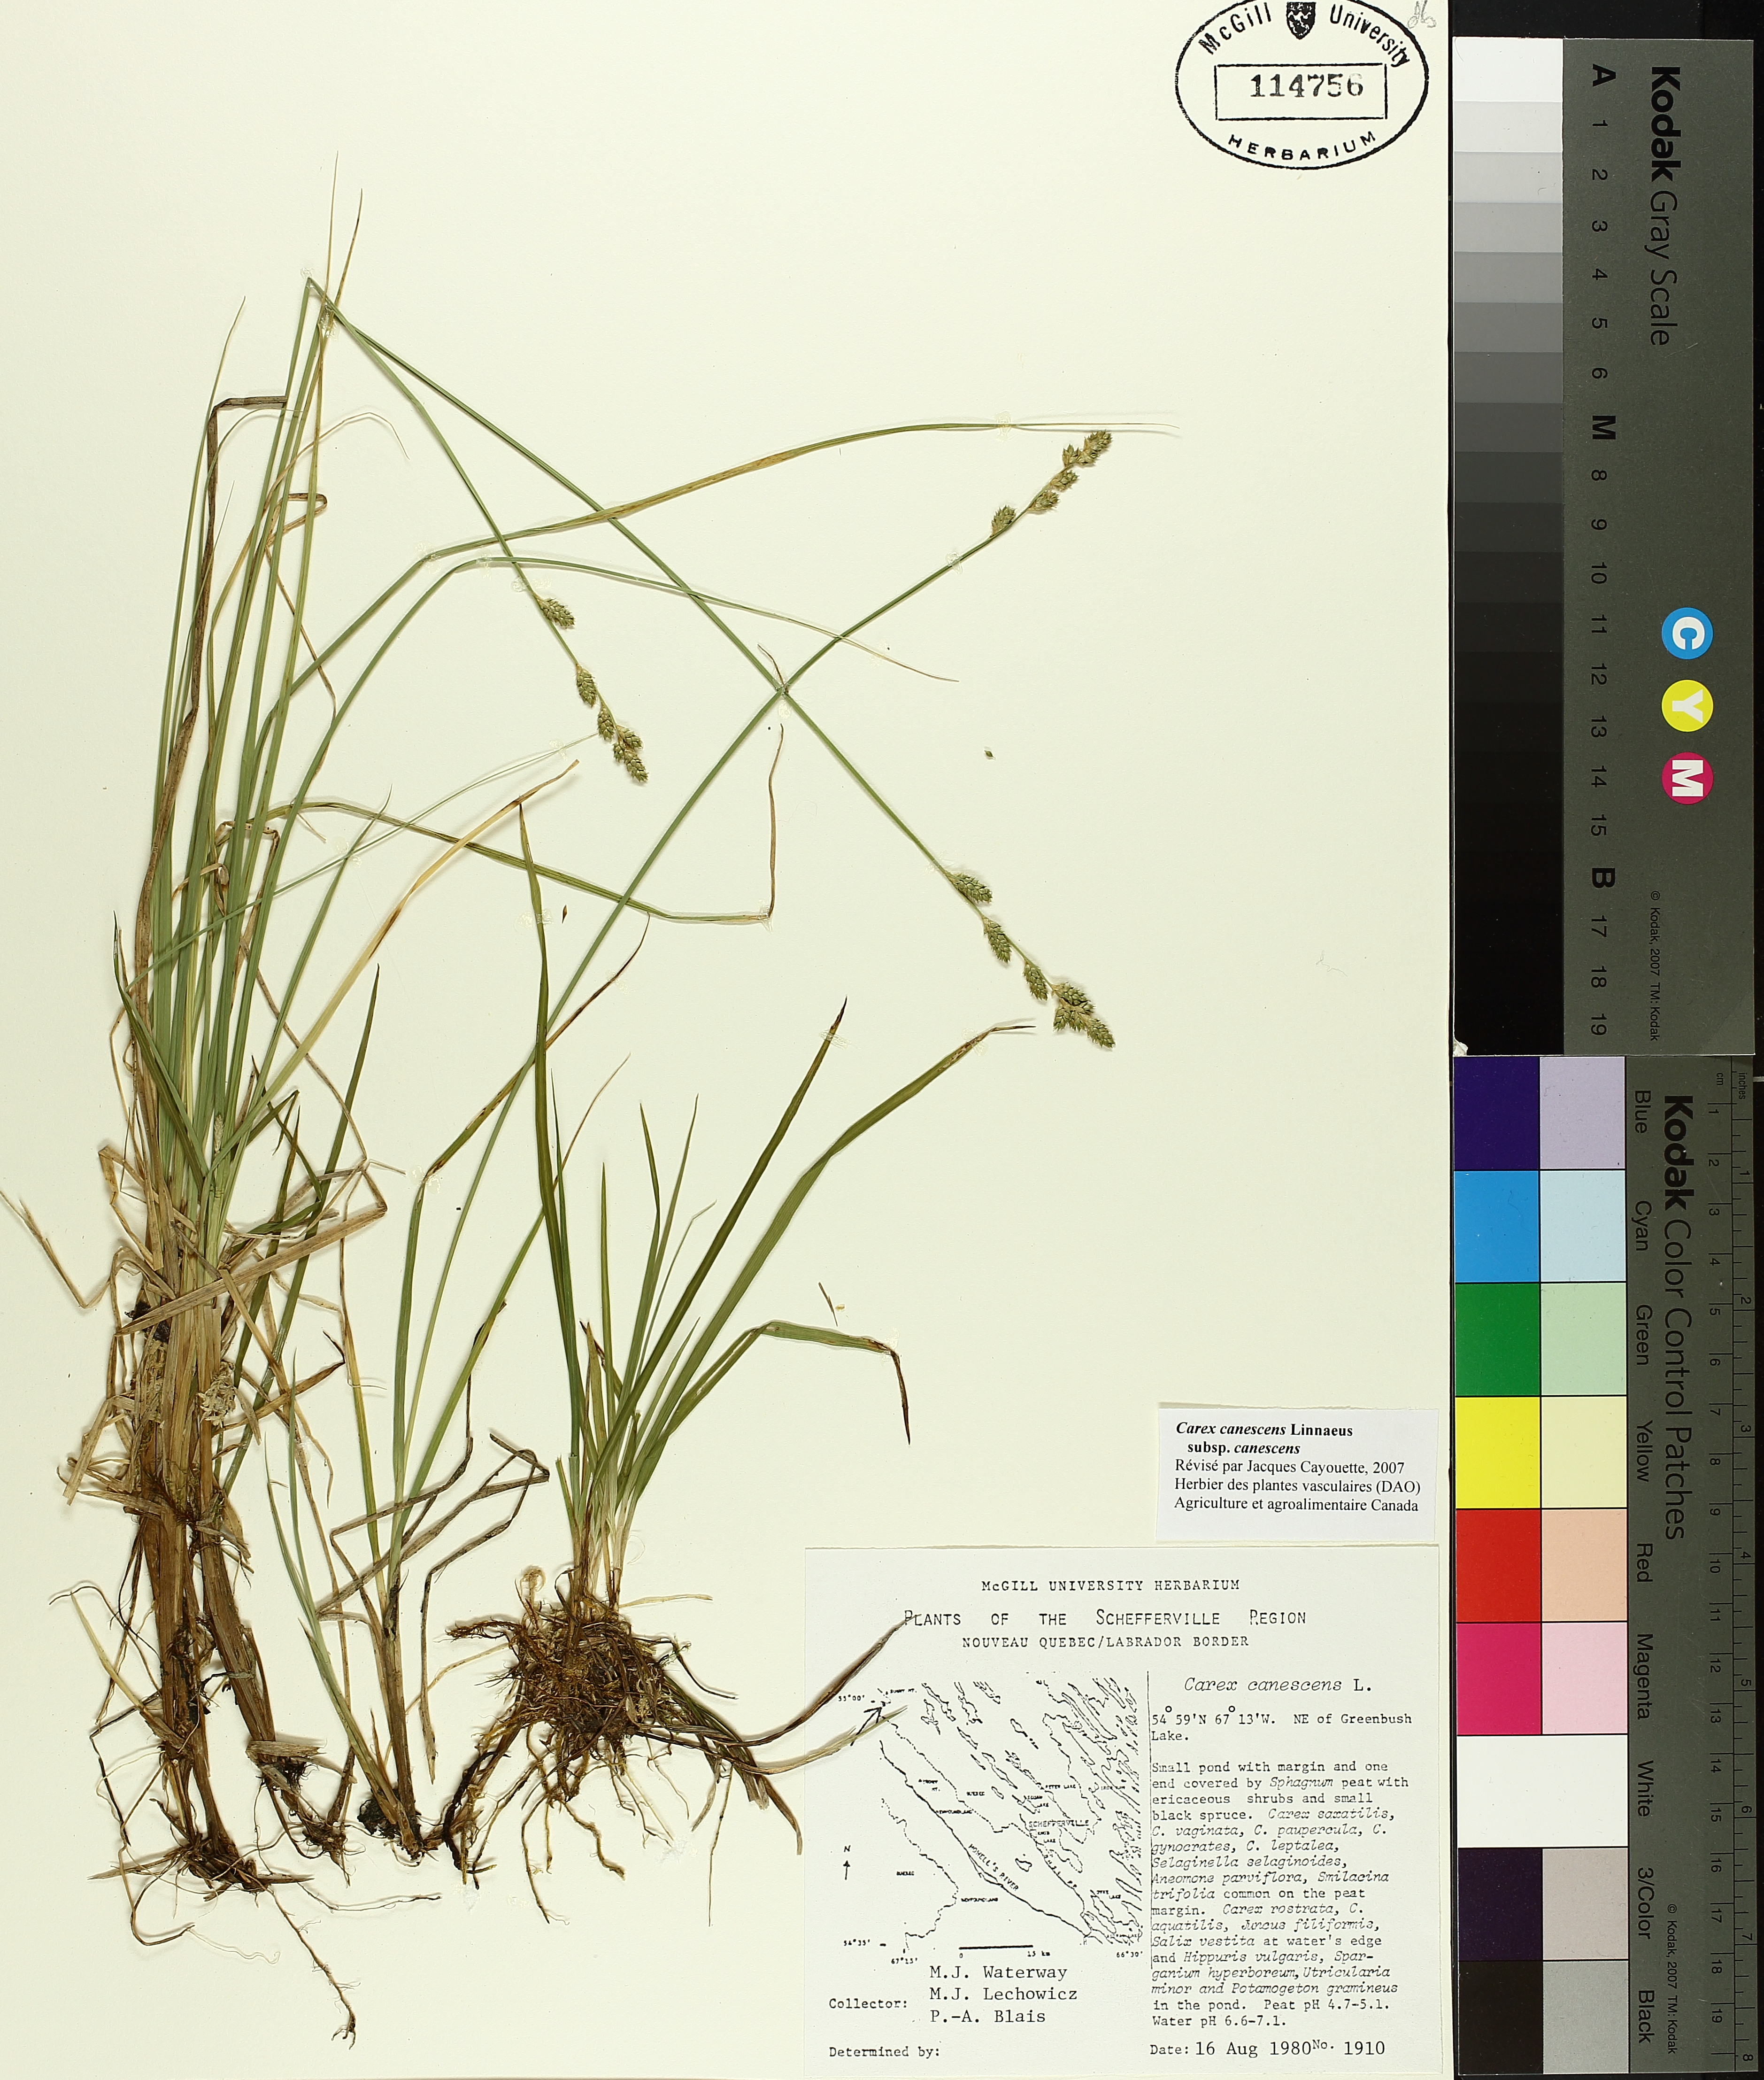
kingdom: Plantae
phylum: Tracheophyta
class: Liliopsida
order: Poales
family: Cyperaceae
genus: Carex
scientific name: Carex canescens
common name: White sedge
